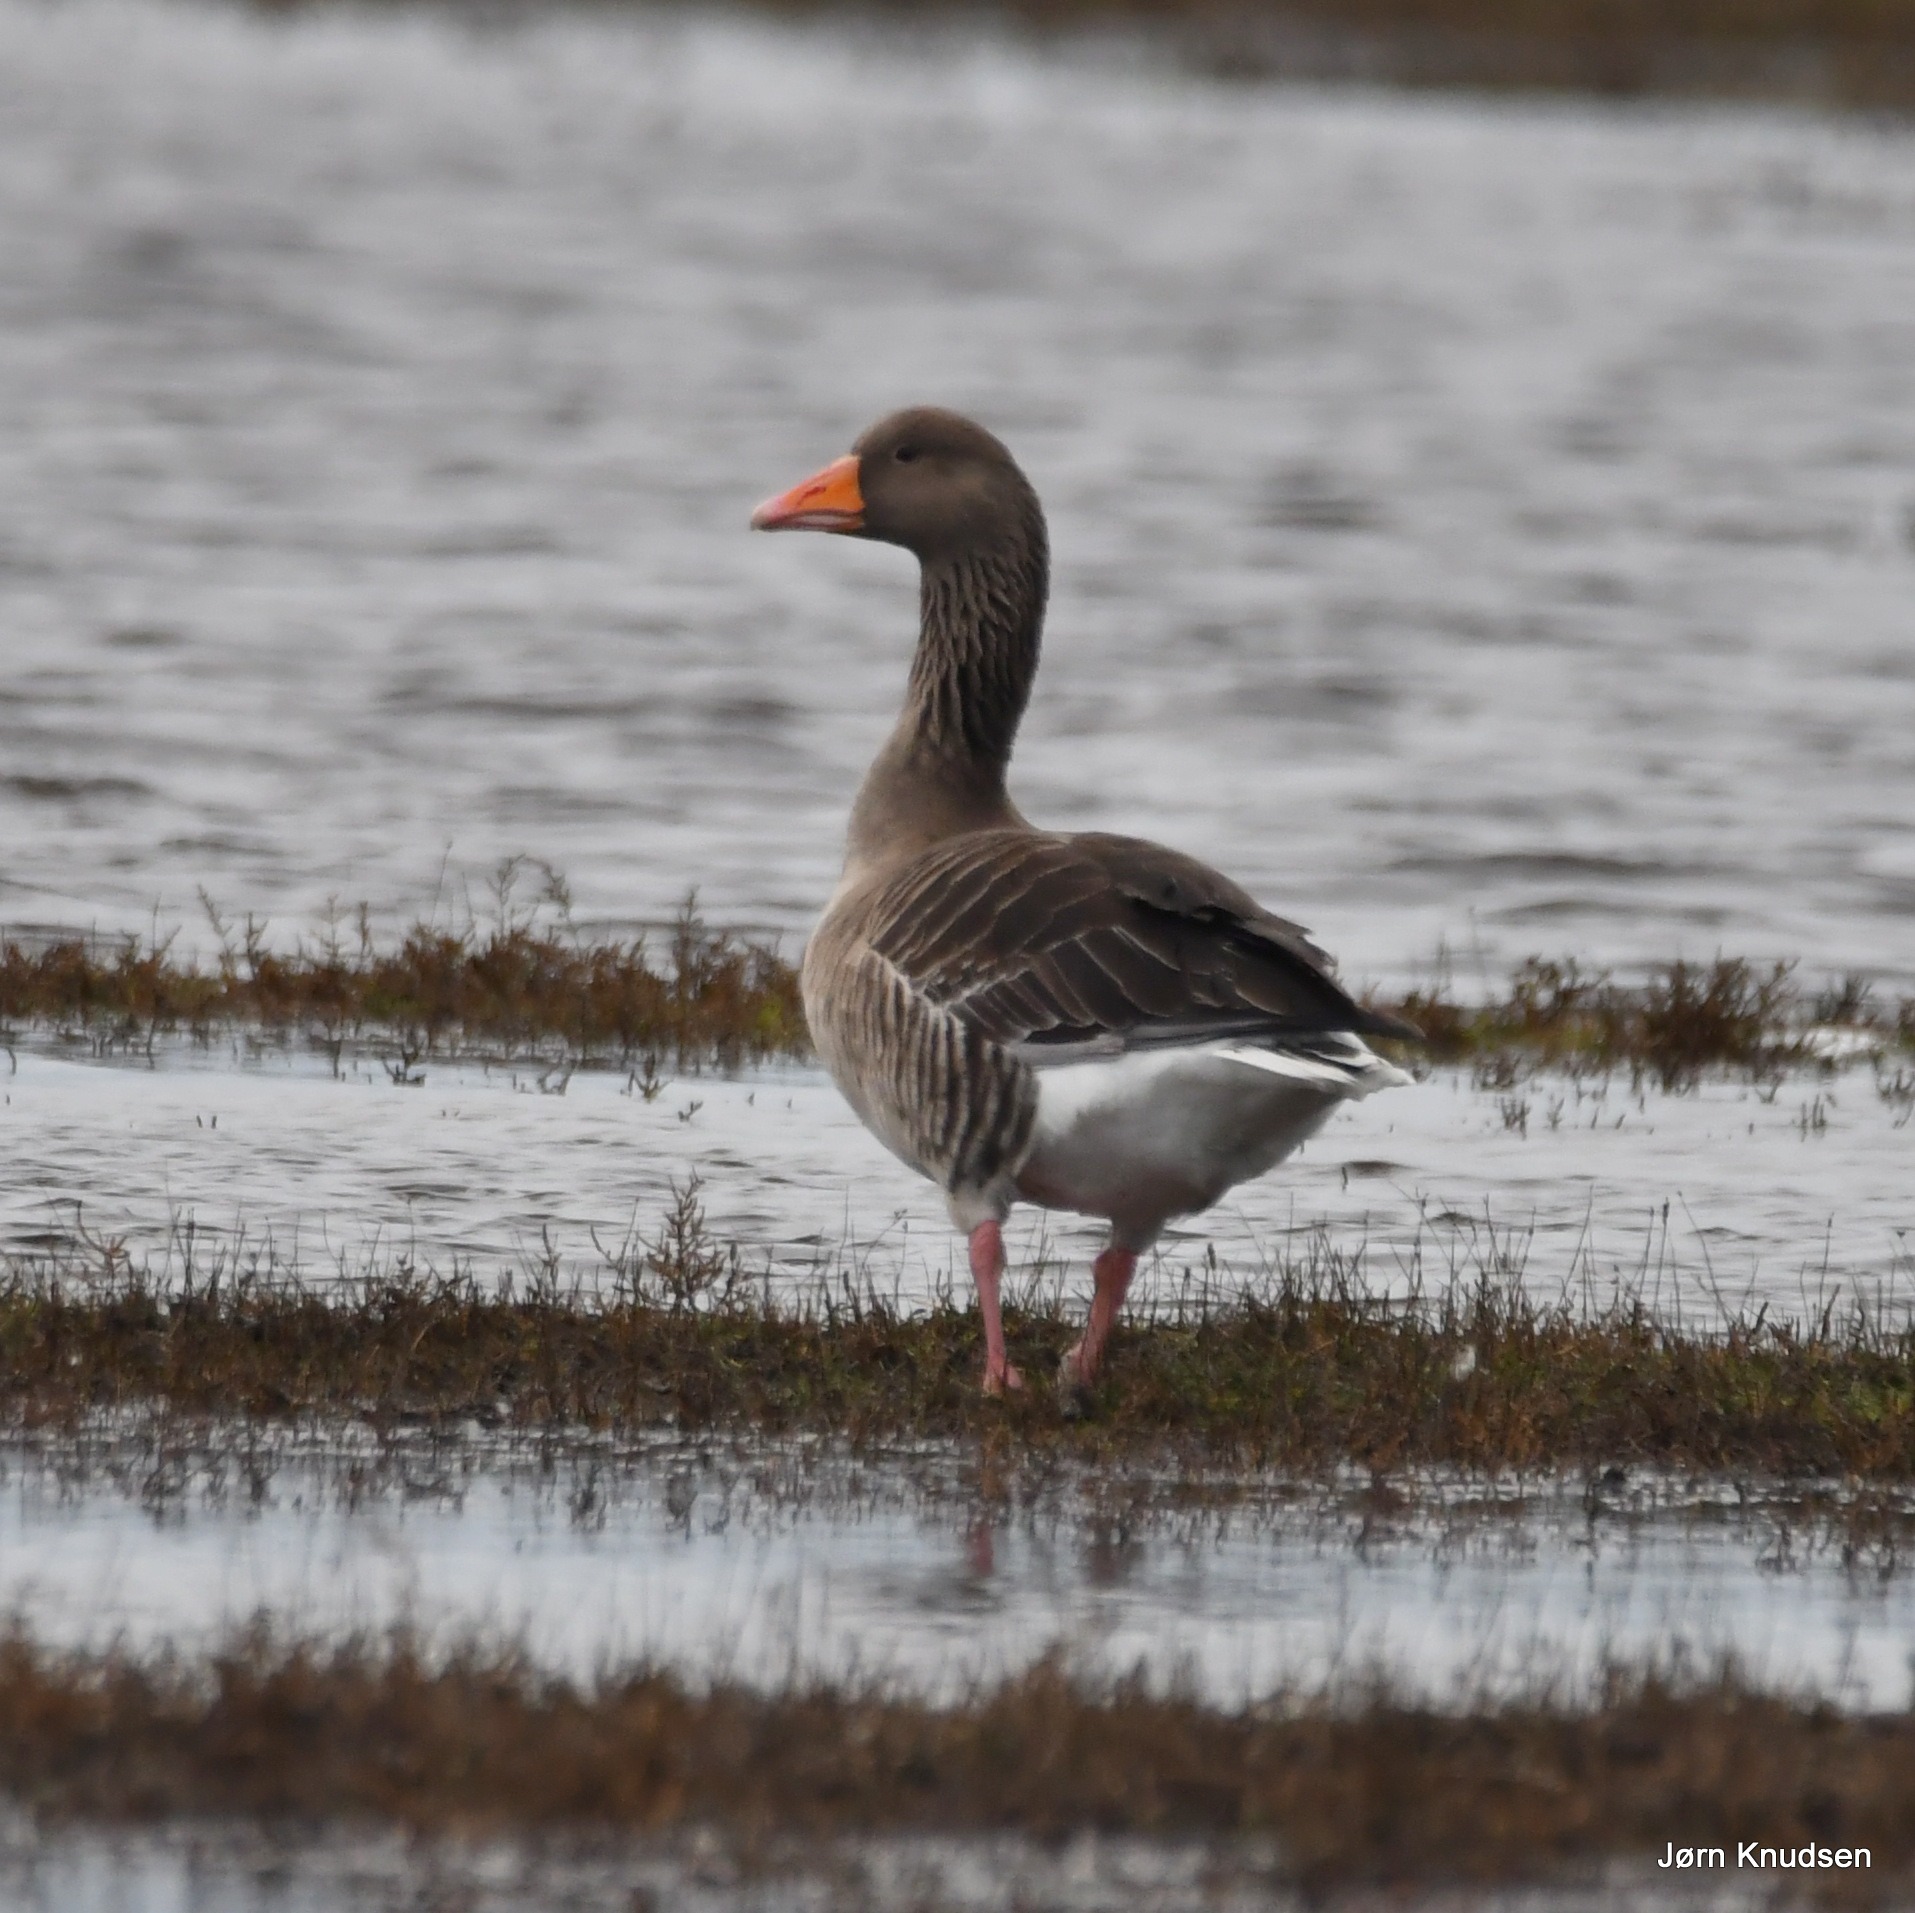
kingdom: Animalia
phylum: Chordata
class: Aves
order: Anseriformes
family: Anatidae
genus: Anser
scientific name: Anser anser
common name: Grågås
